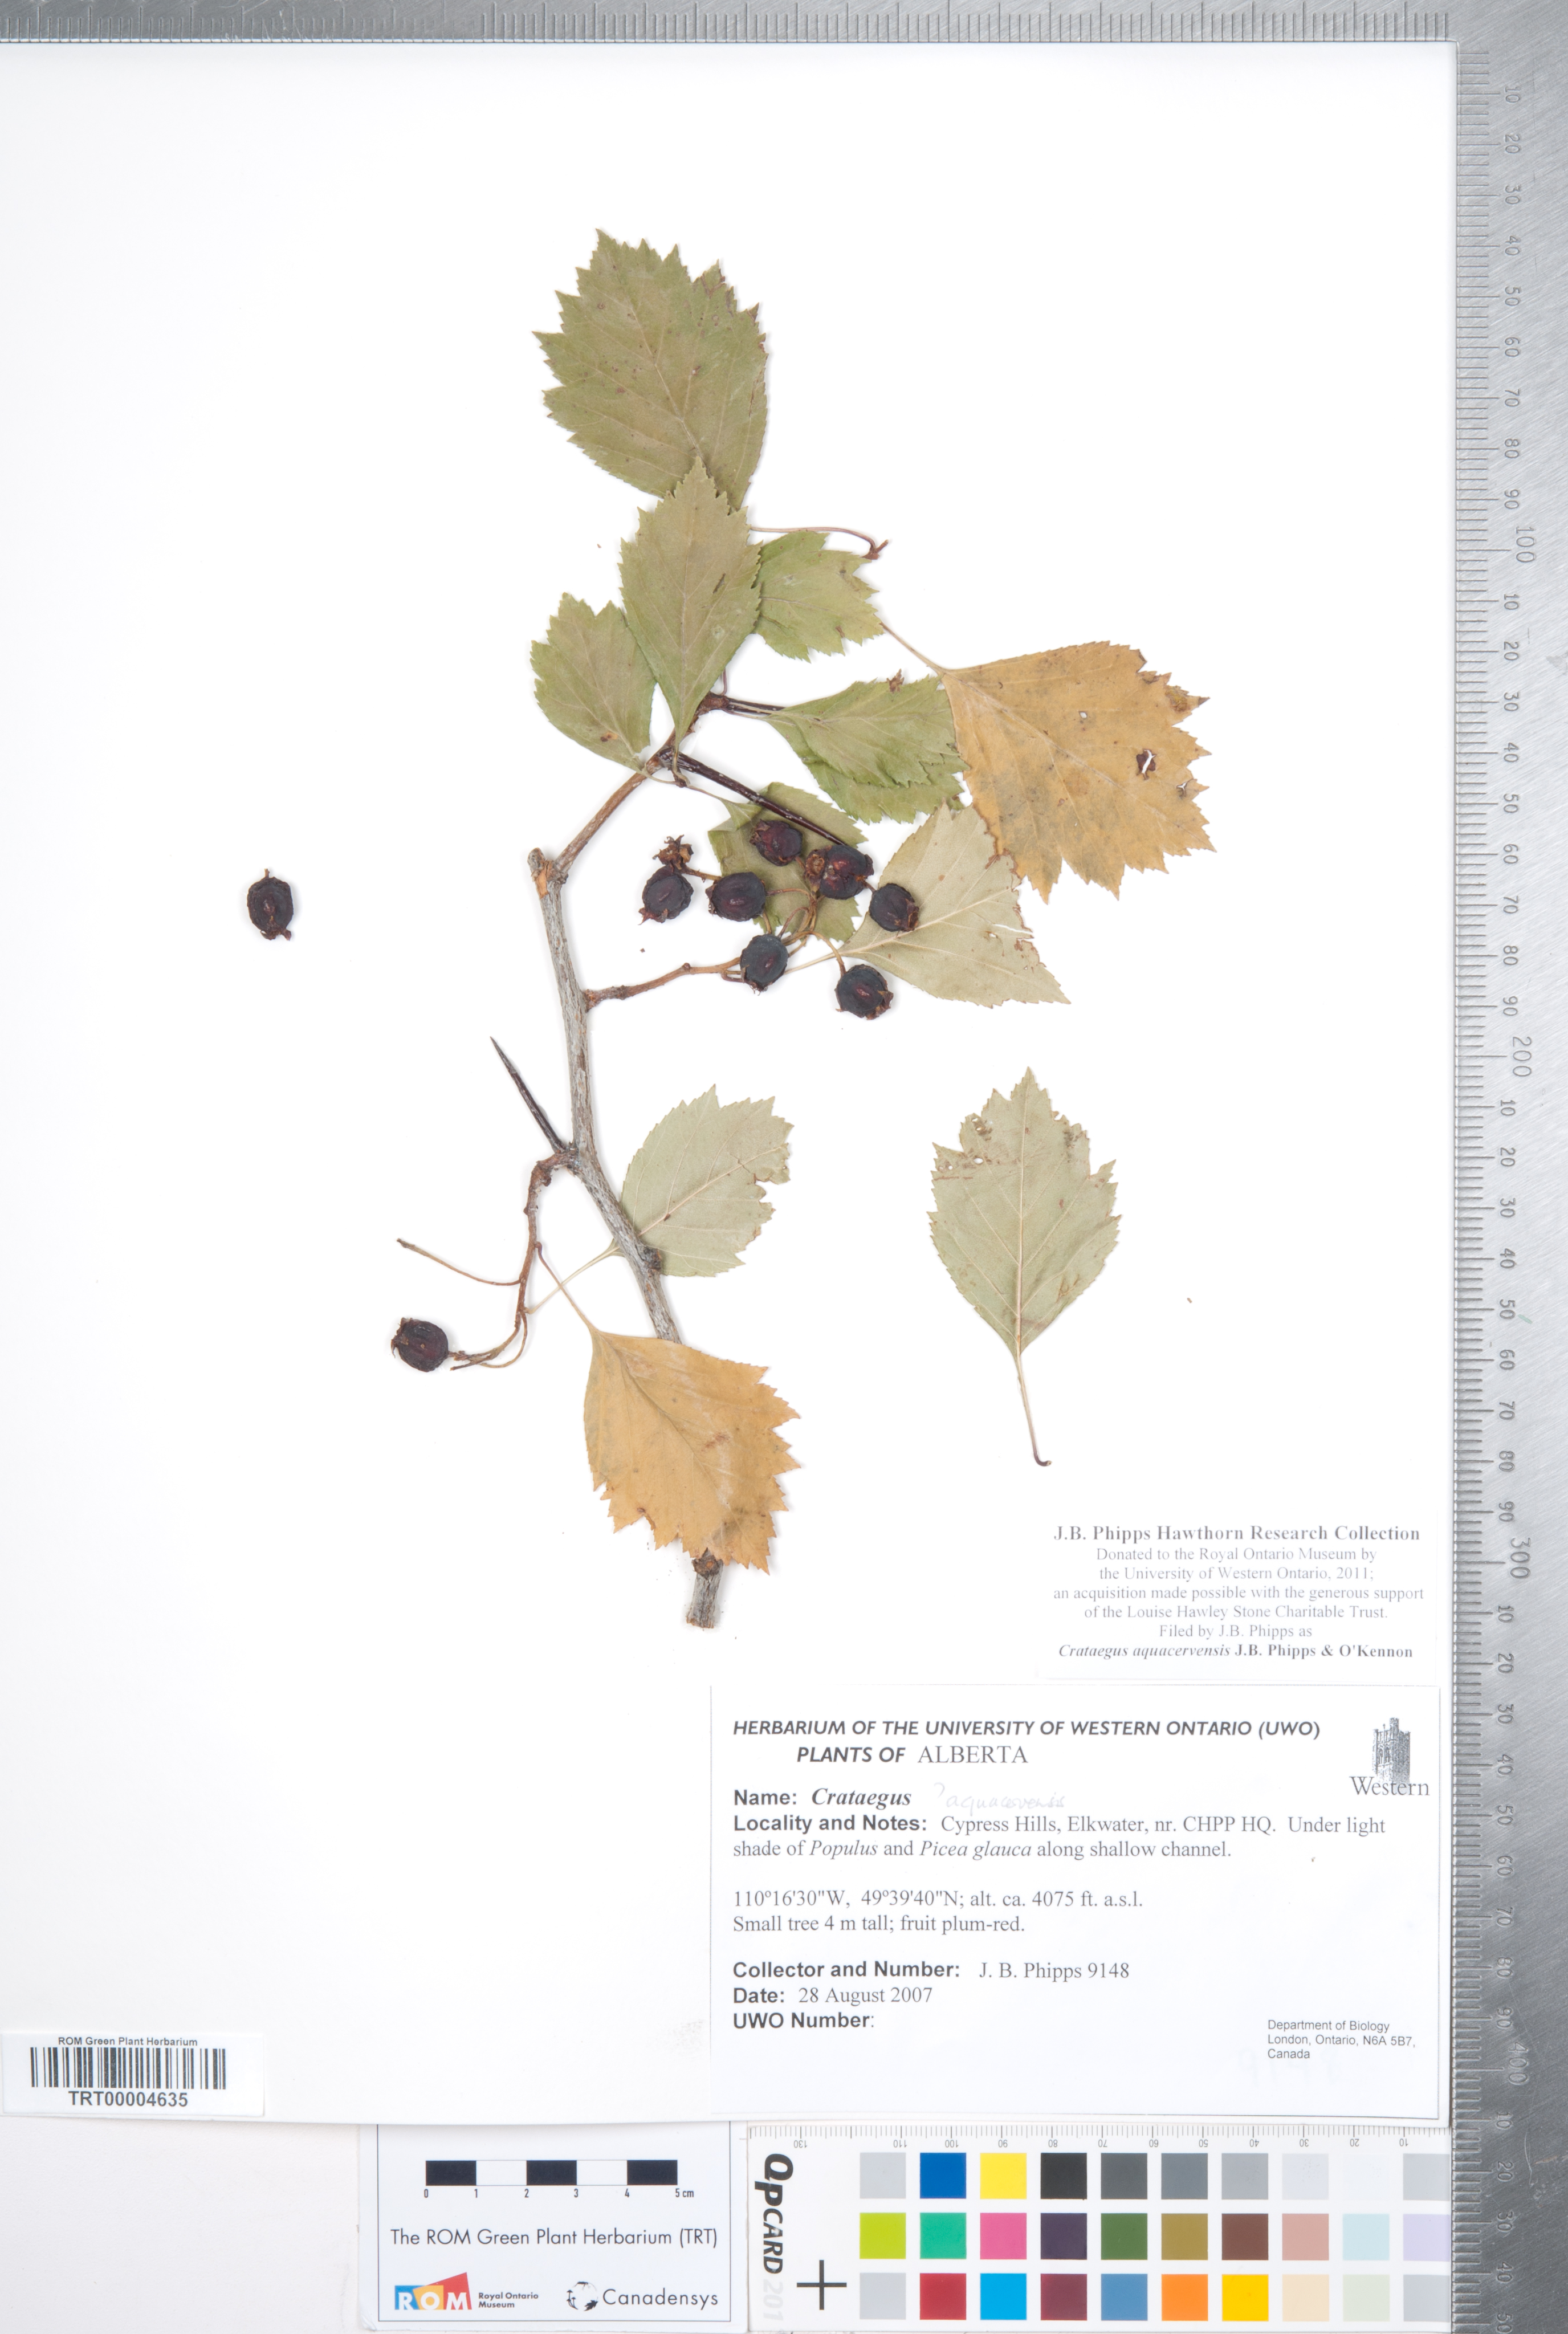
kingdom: Plantae
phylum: Tracheophyta
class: Magnoliopsida
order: Rosales
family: Rosaceae
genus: Crataegus
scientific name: Crataegus aquacervensis
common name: Elkwater hawthorn
